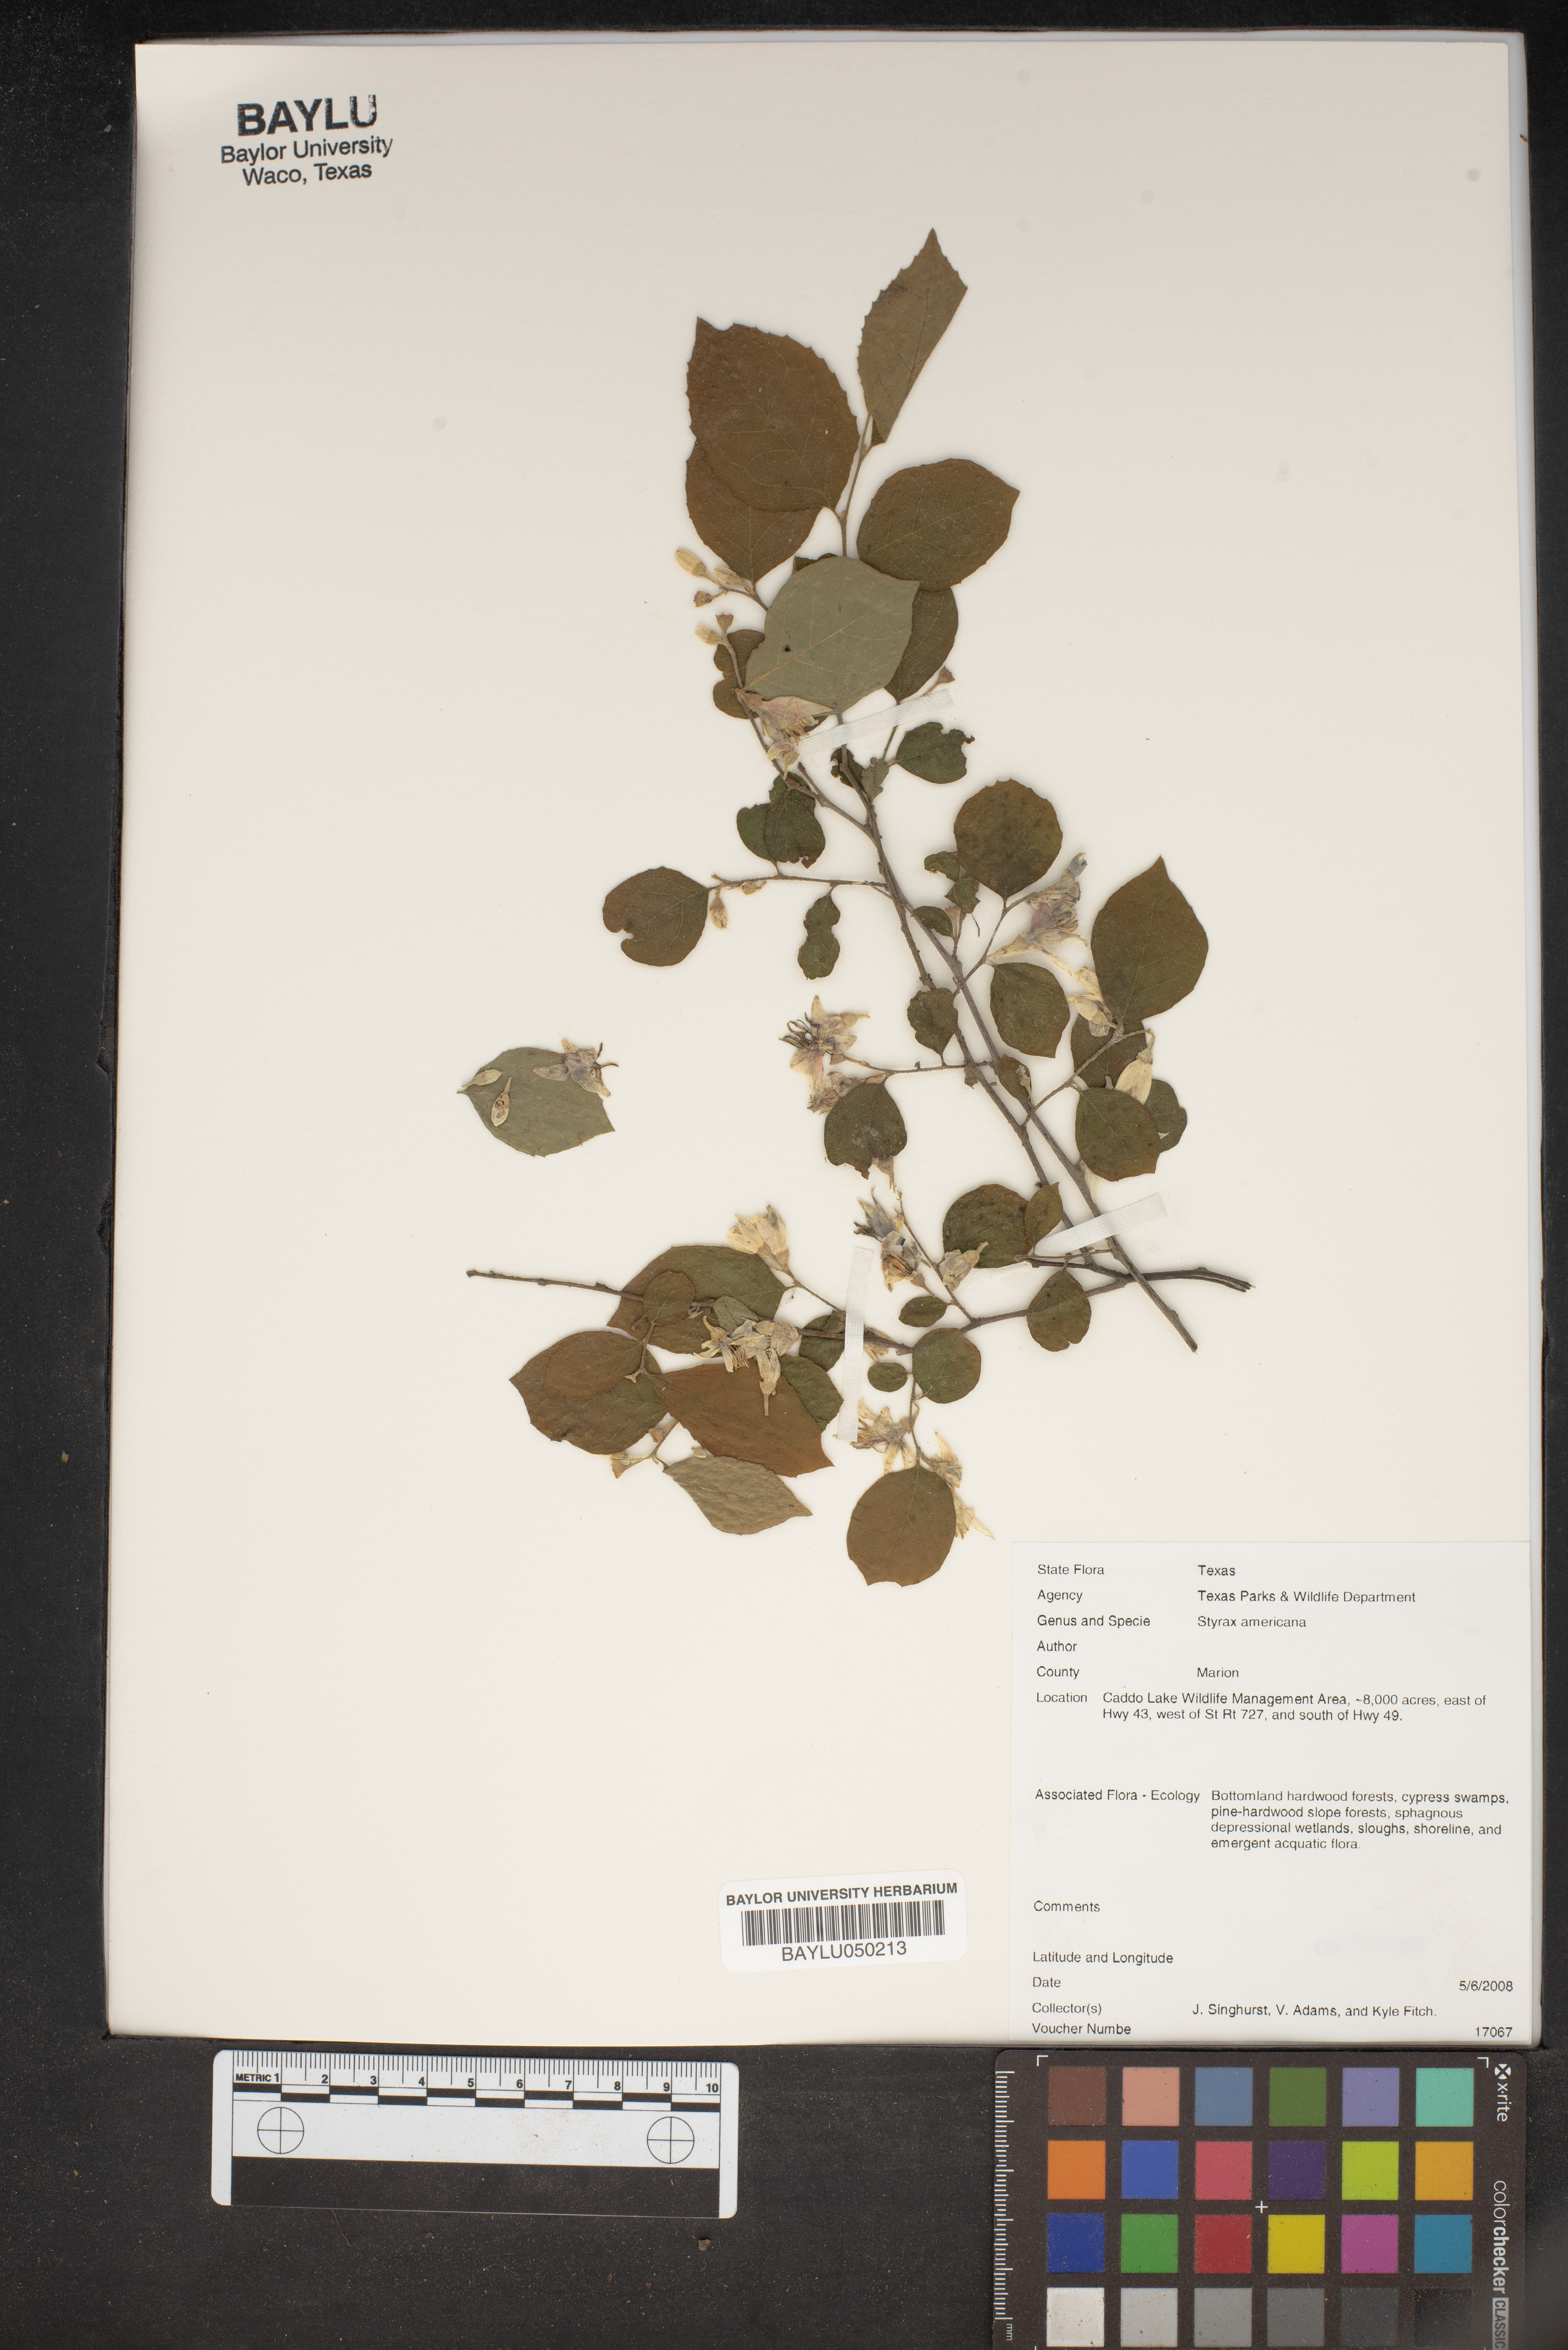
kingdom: Plantae
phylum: Tracheophyta
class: Magnoliopsida
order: Ericales
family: Styracaceae
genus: Styrax
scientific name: Styrax americanus
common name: American snowbell
